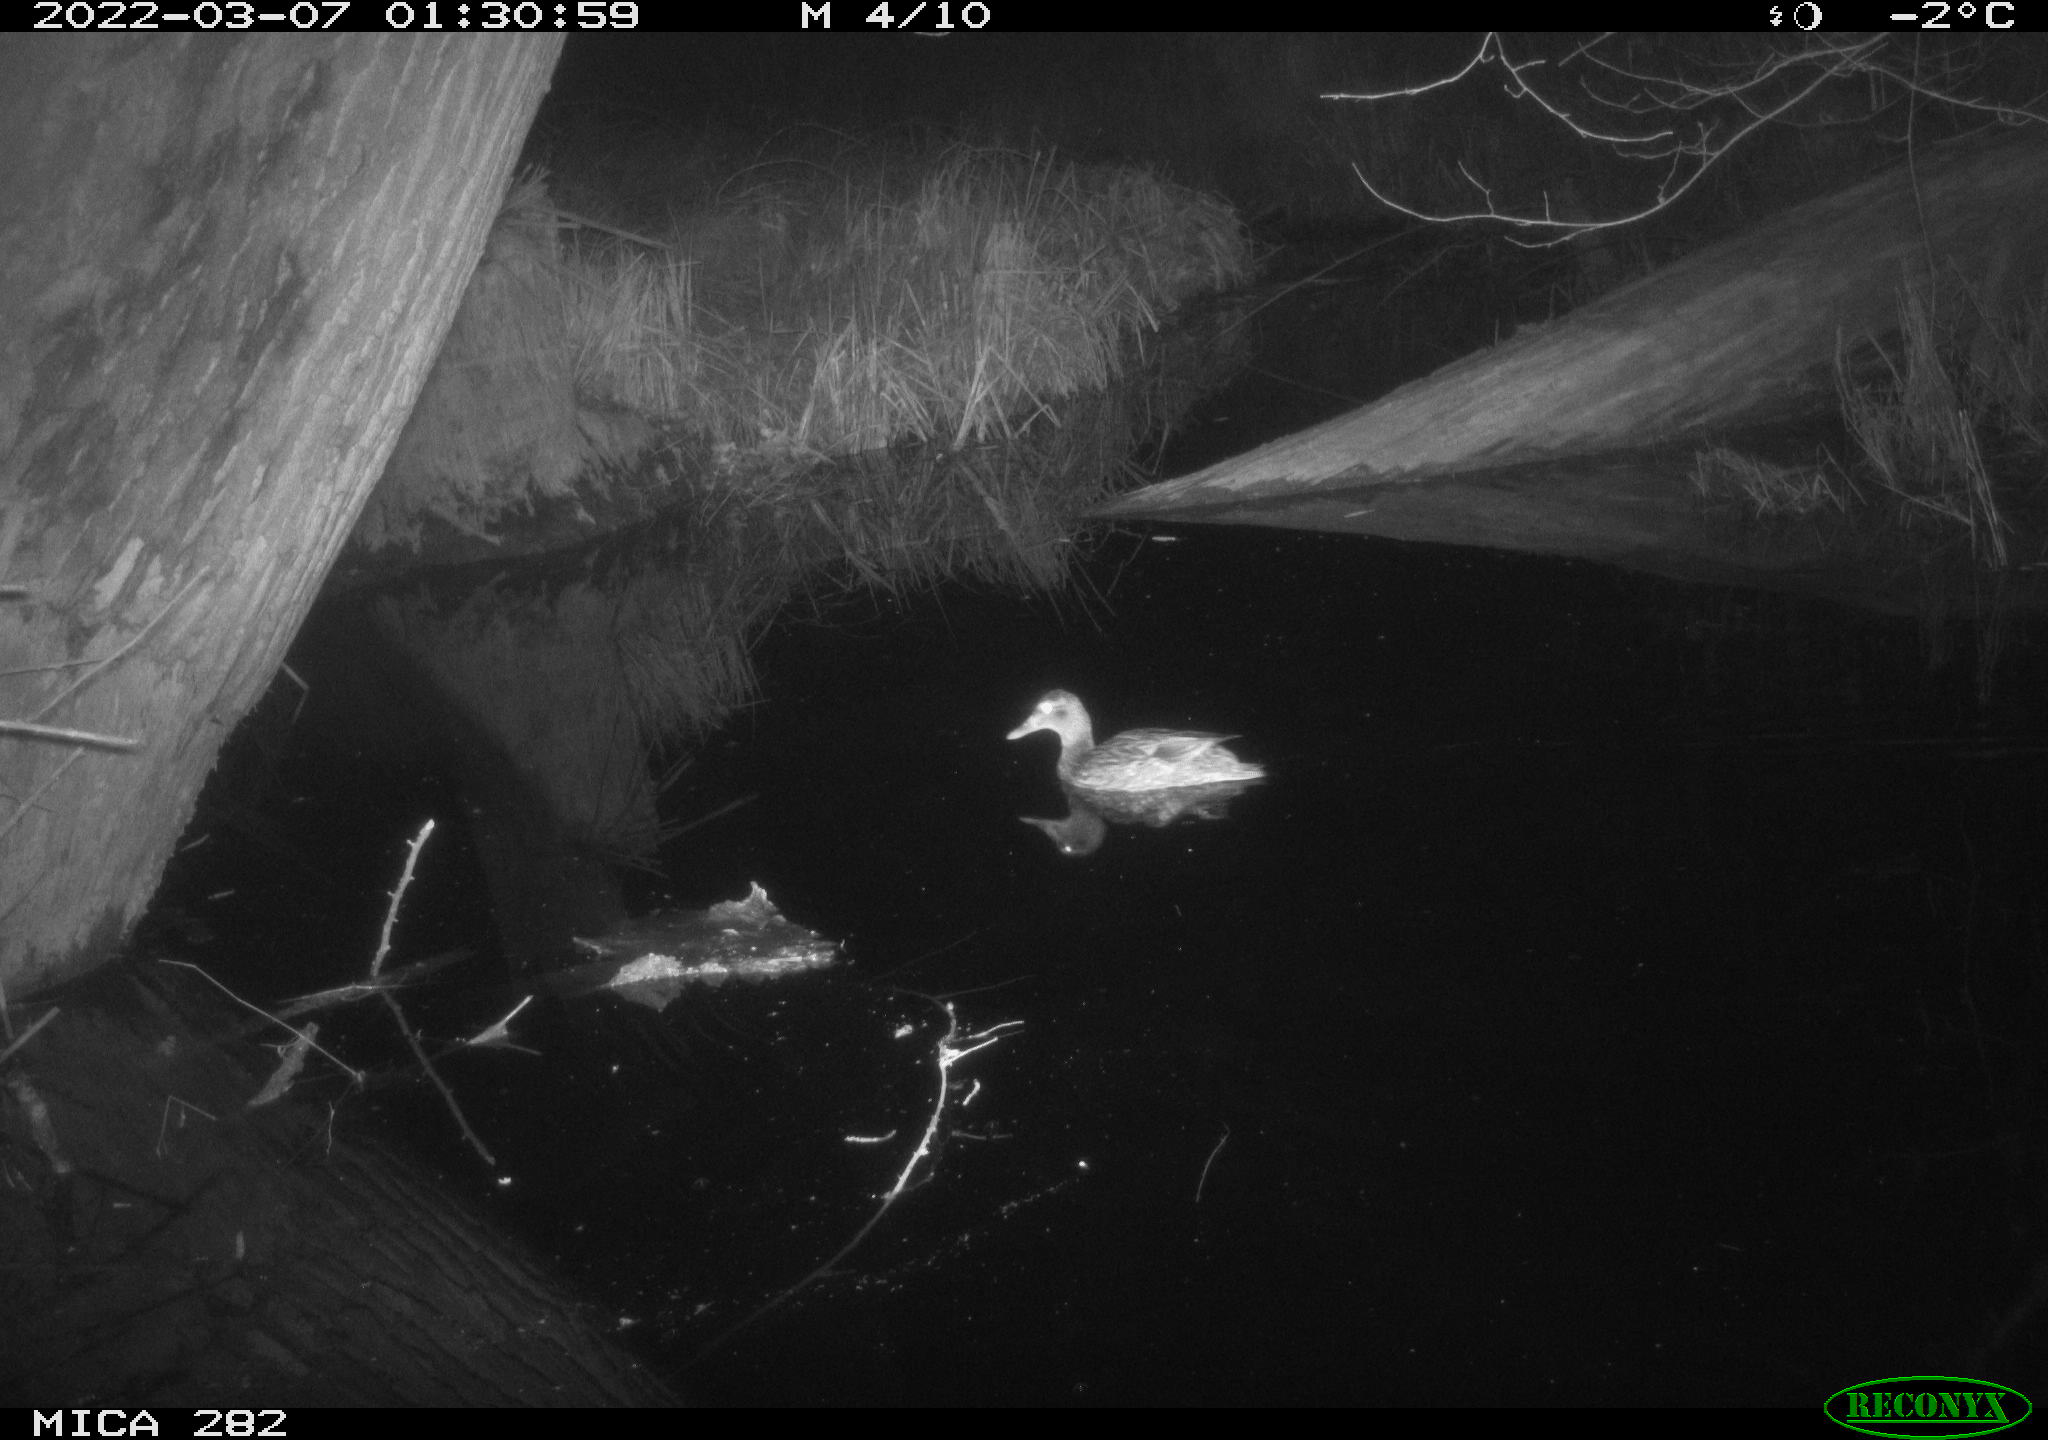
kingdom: Animalia
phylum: Chordata
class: Aves
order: Anseriformes
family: Anatidae
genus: Anas
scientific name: Anas platyrhynchos
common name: Mallard
